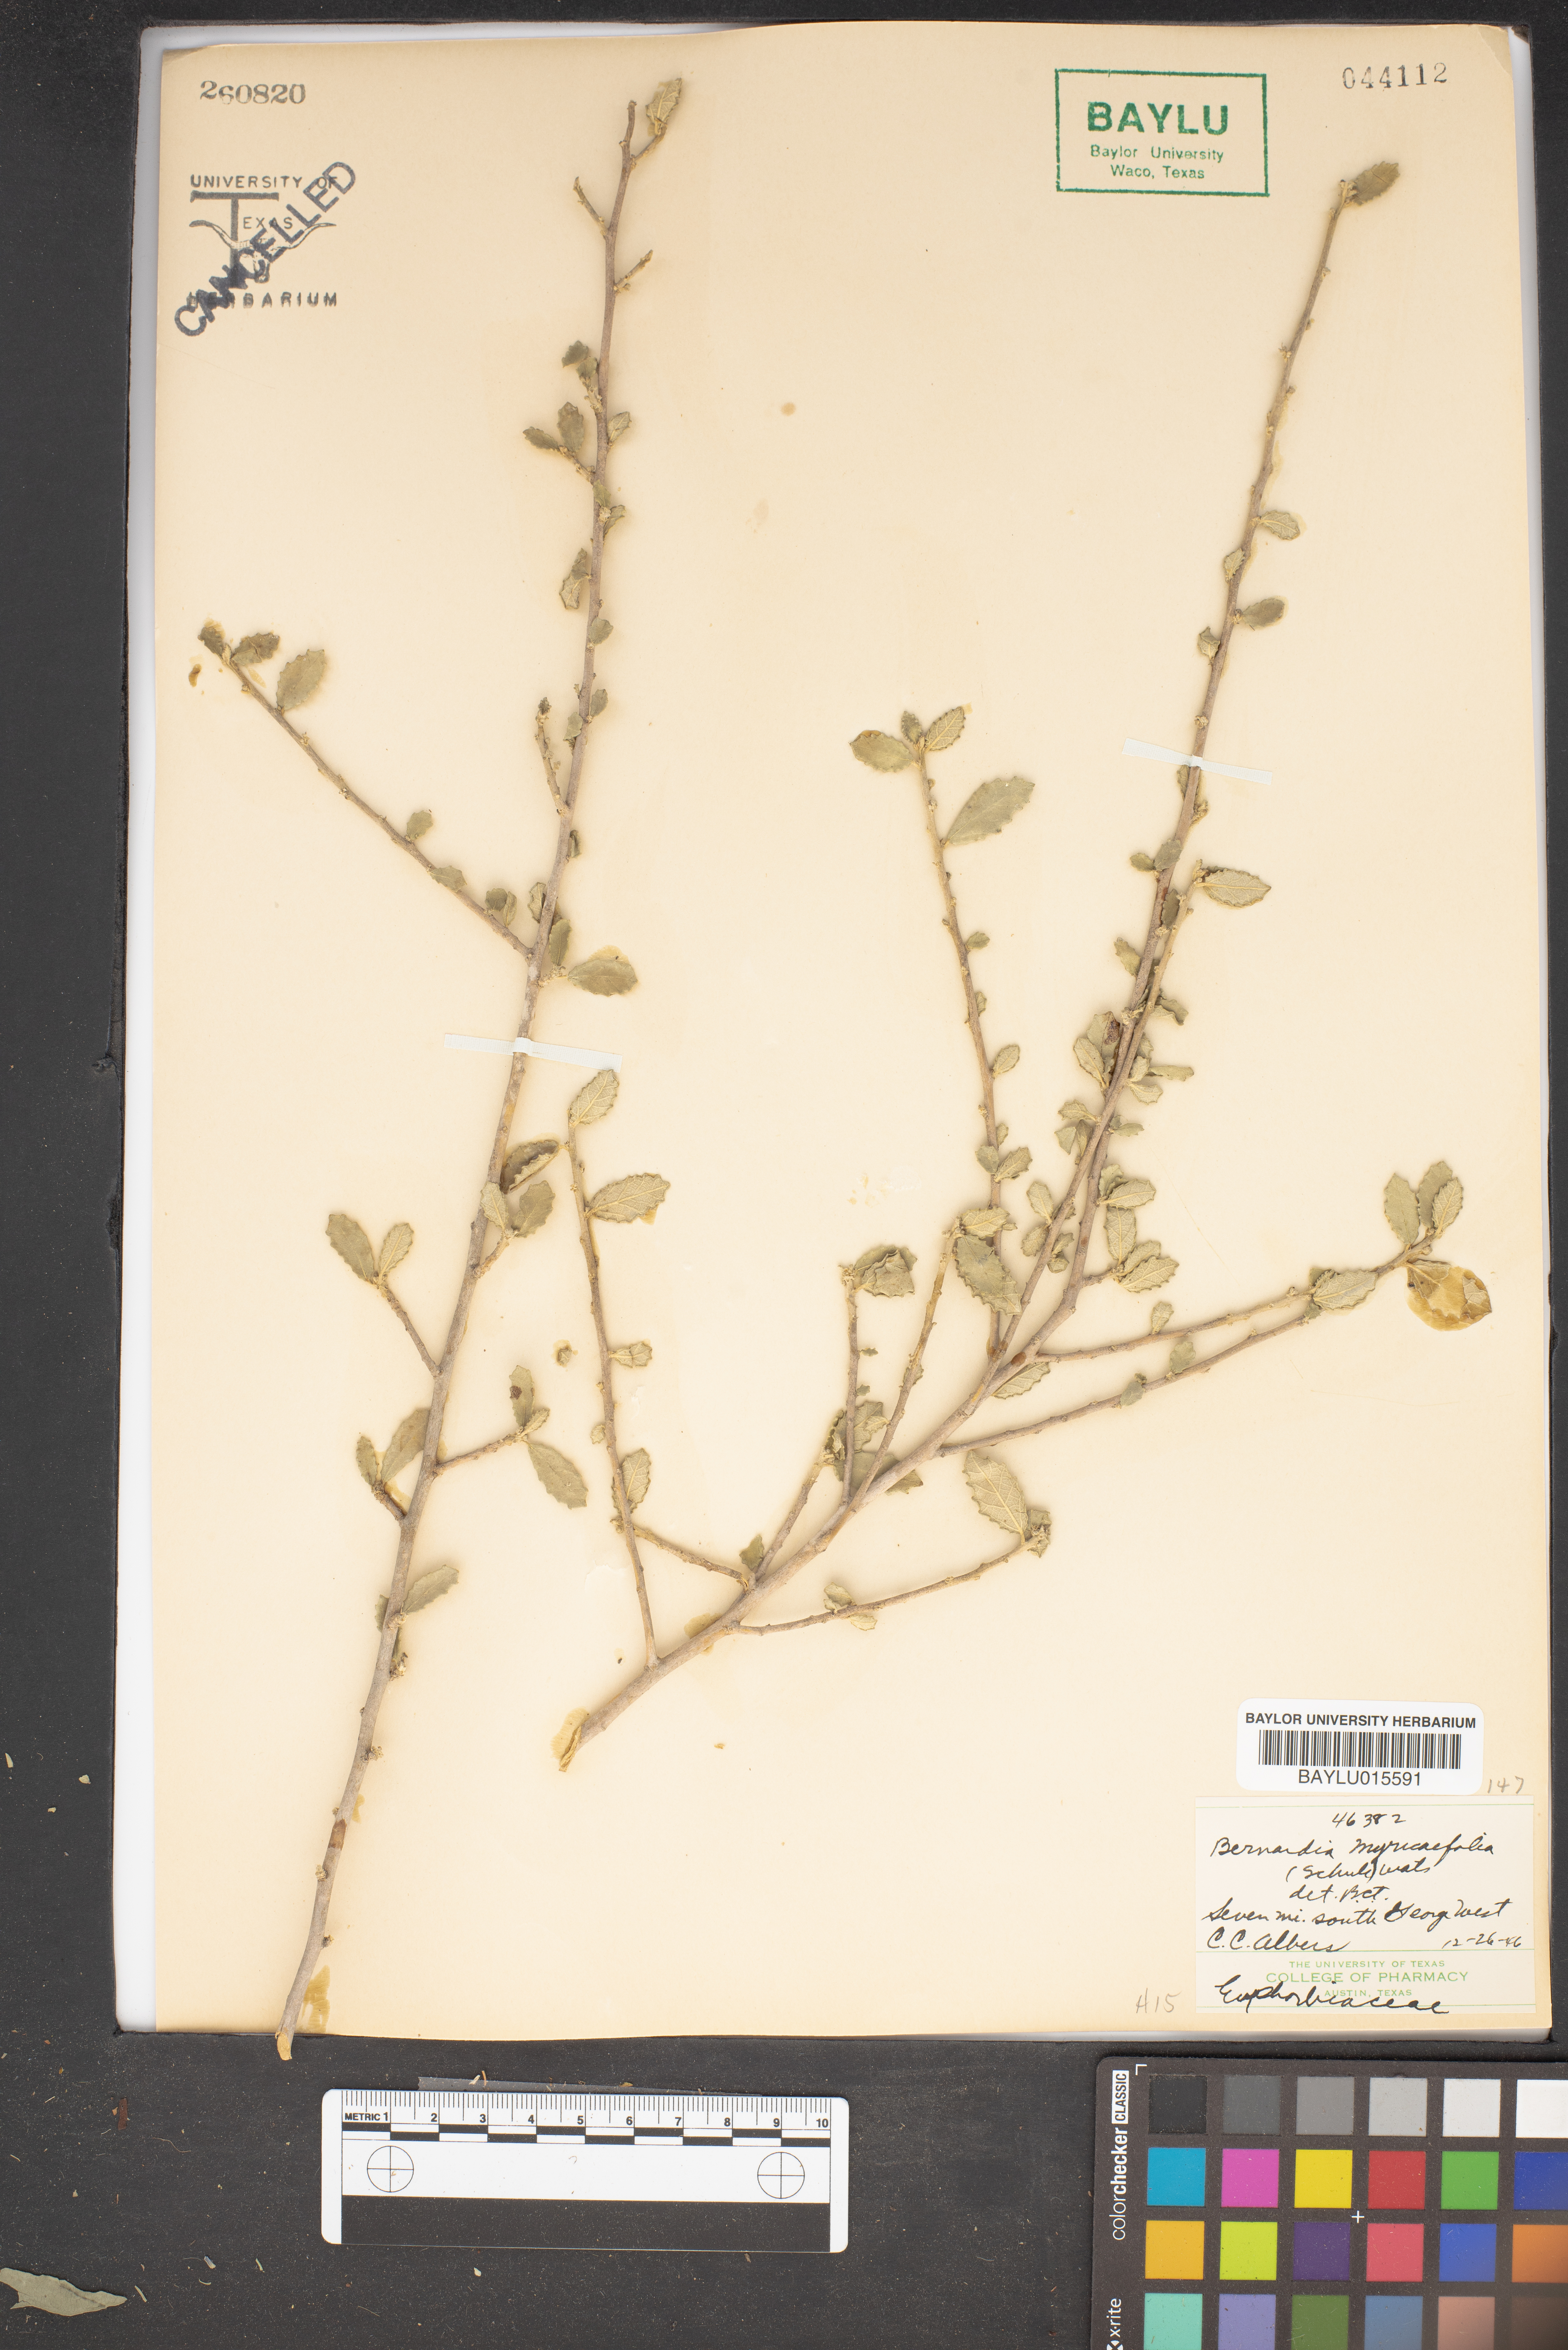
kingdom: Plantae
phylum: Tracheophyta
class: Magnoliopsida
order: Malpighiales
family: Euphorbiaceae
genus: Bernardia
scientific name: Bernardia myricifolia
